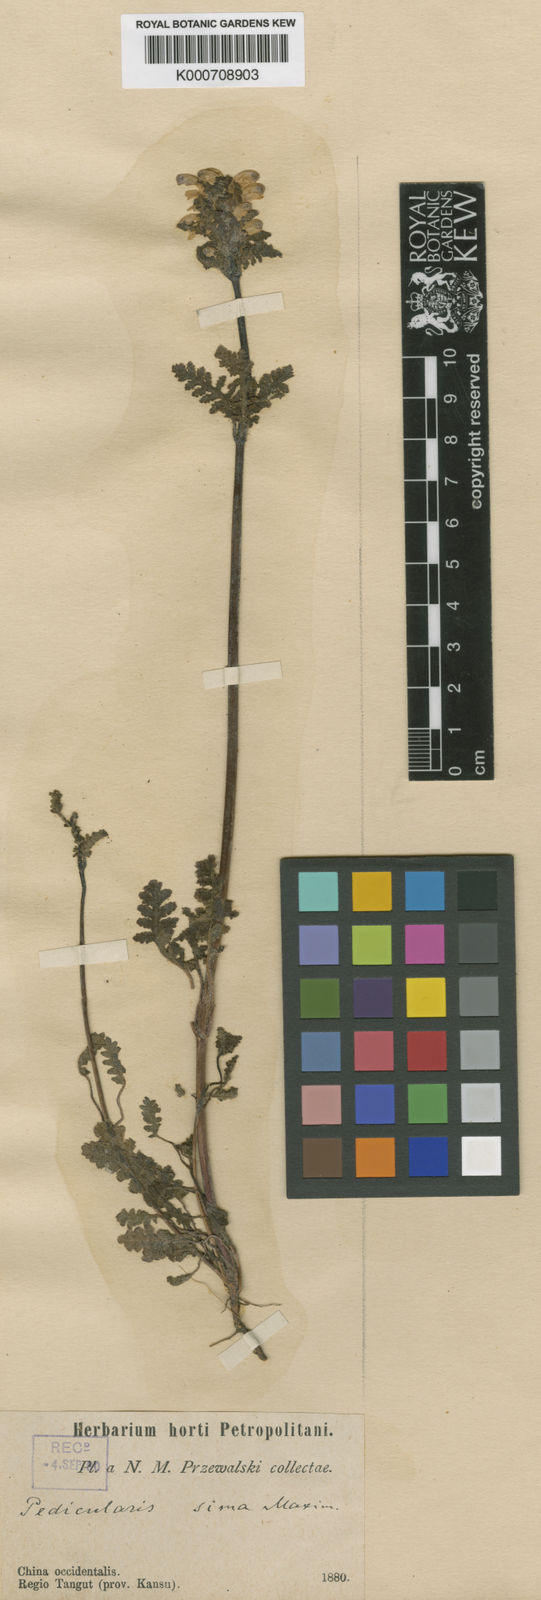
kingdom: Plantae
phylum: Tracheophyta
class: Magnoliopsida
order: Lamiales
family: Orobanchaceae
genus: Pedicularis
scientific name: Pedicularis sima
